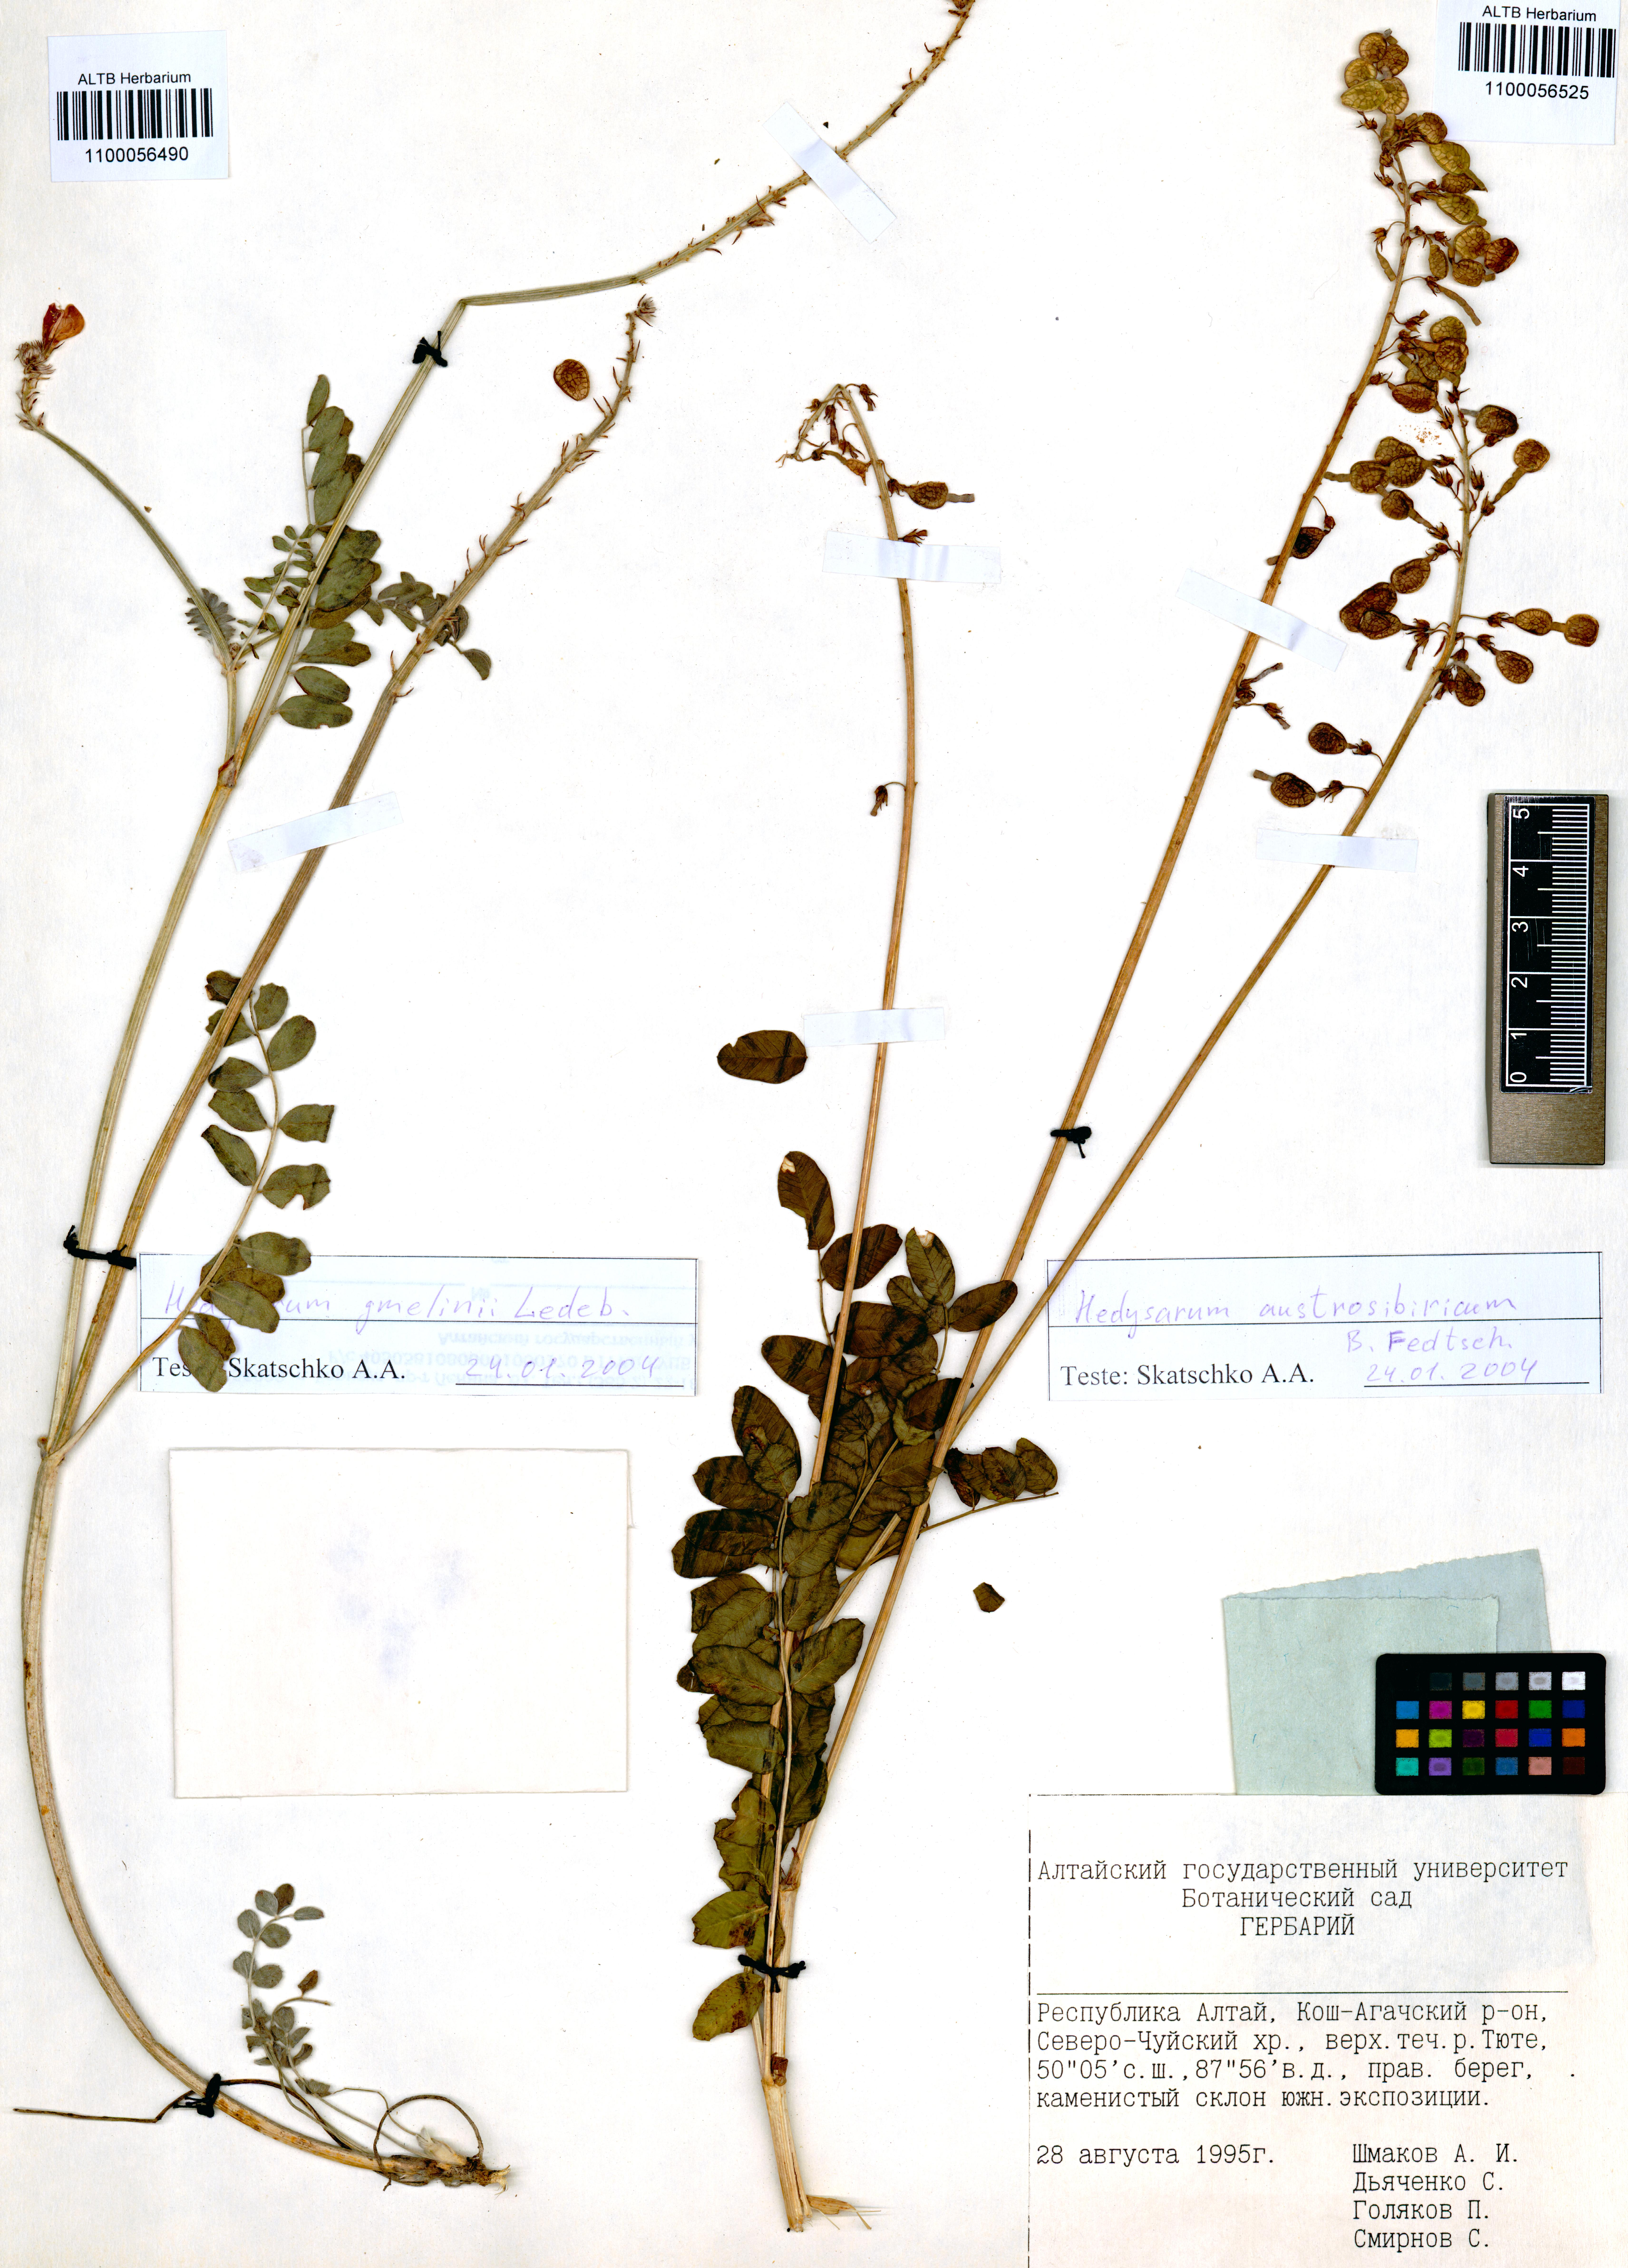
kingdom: Plantae
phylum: Tracheophyta
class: Magnoliopsida
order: Fabales
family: Fabaceae
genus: Hedysarum
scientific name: Hedysarum neglectum
